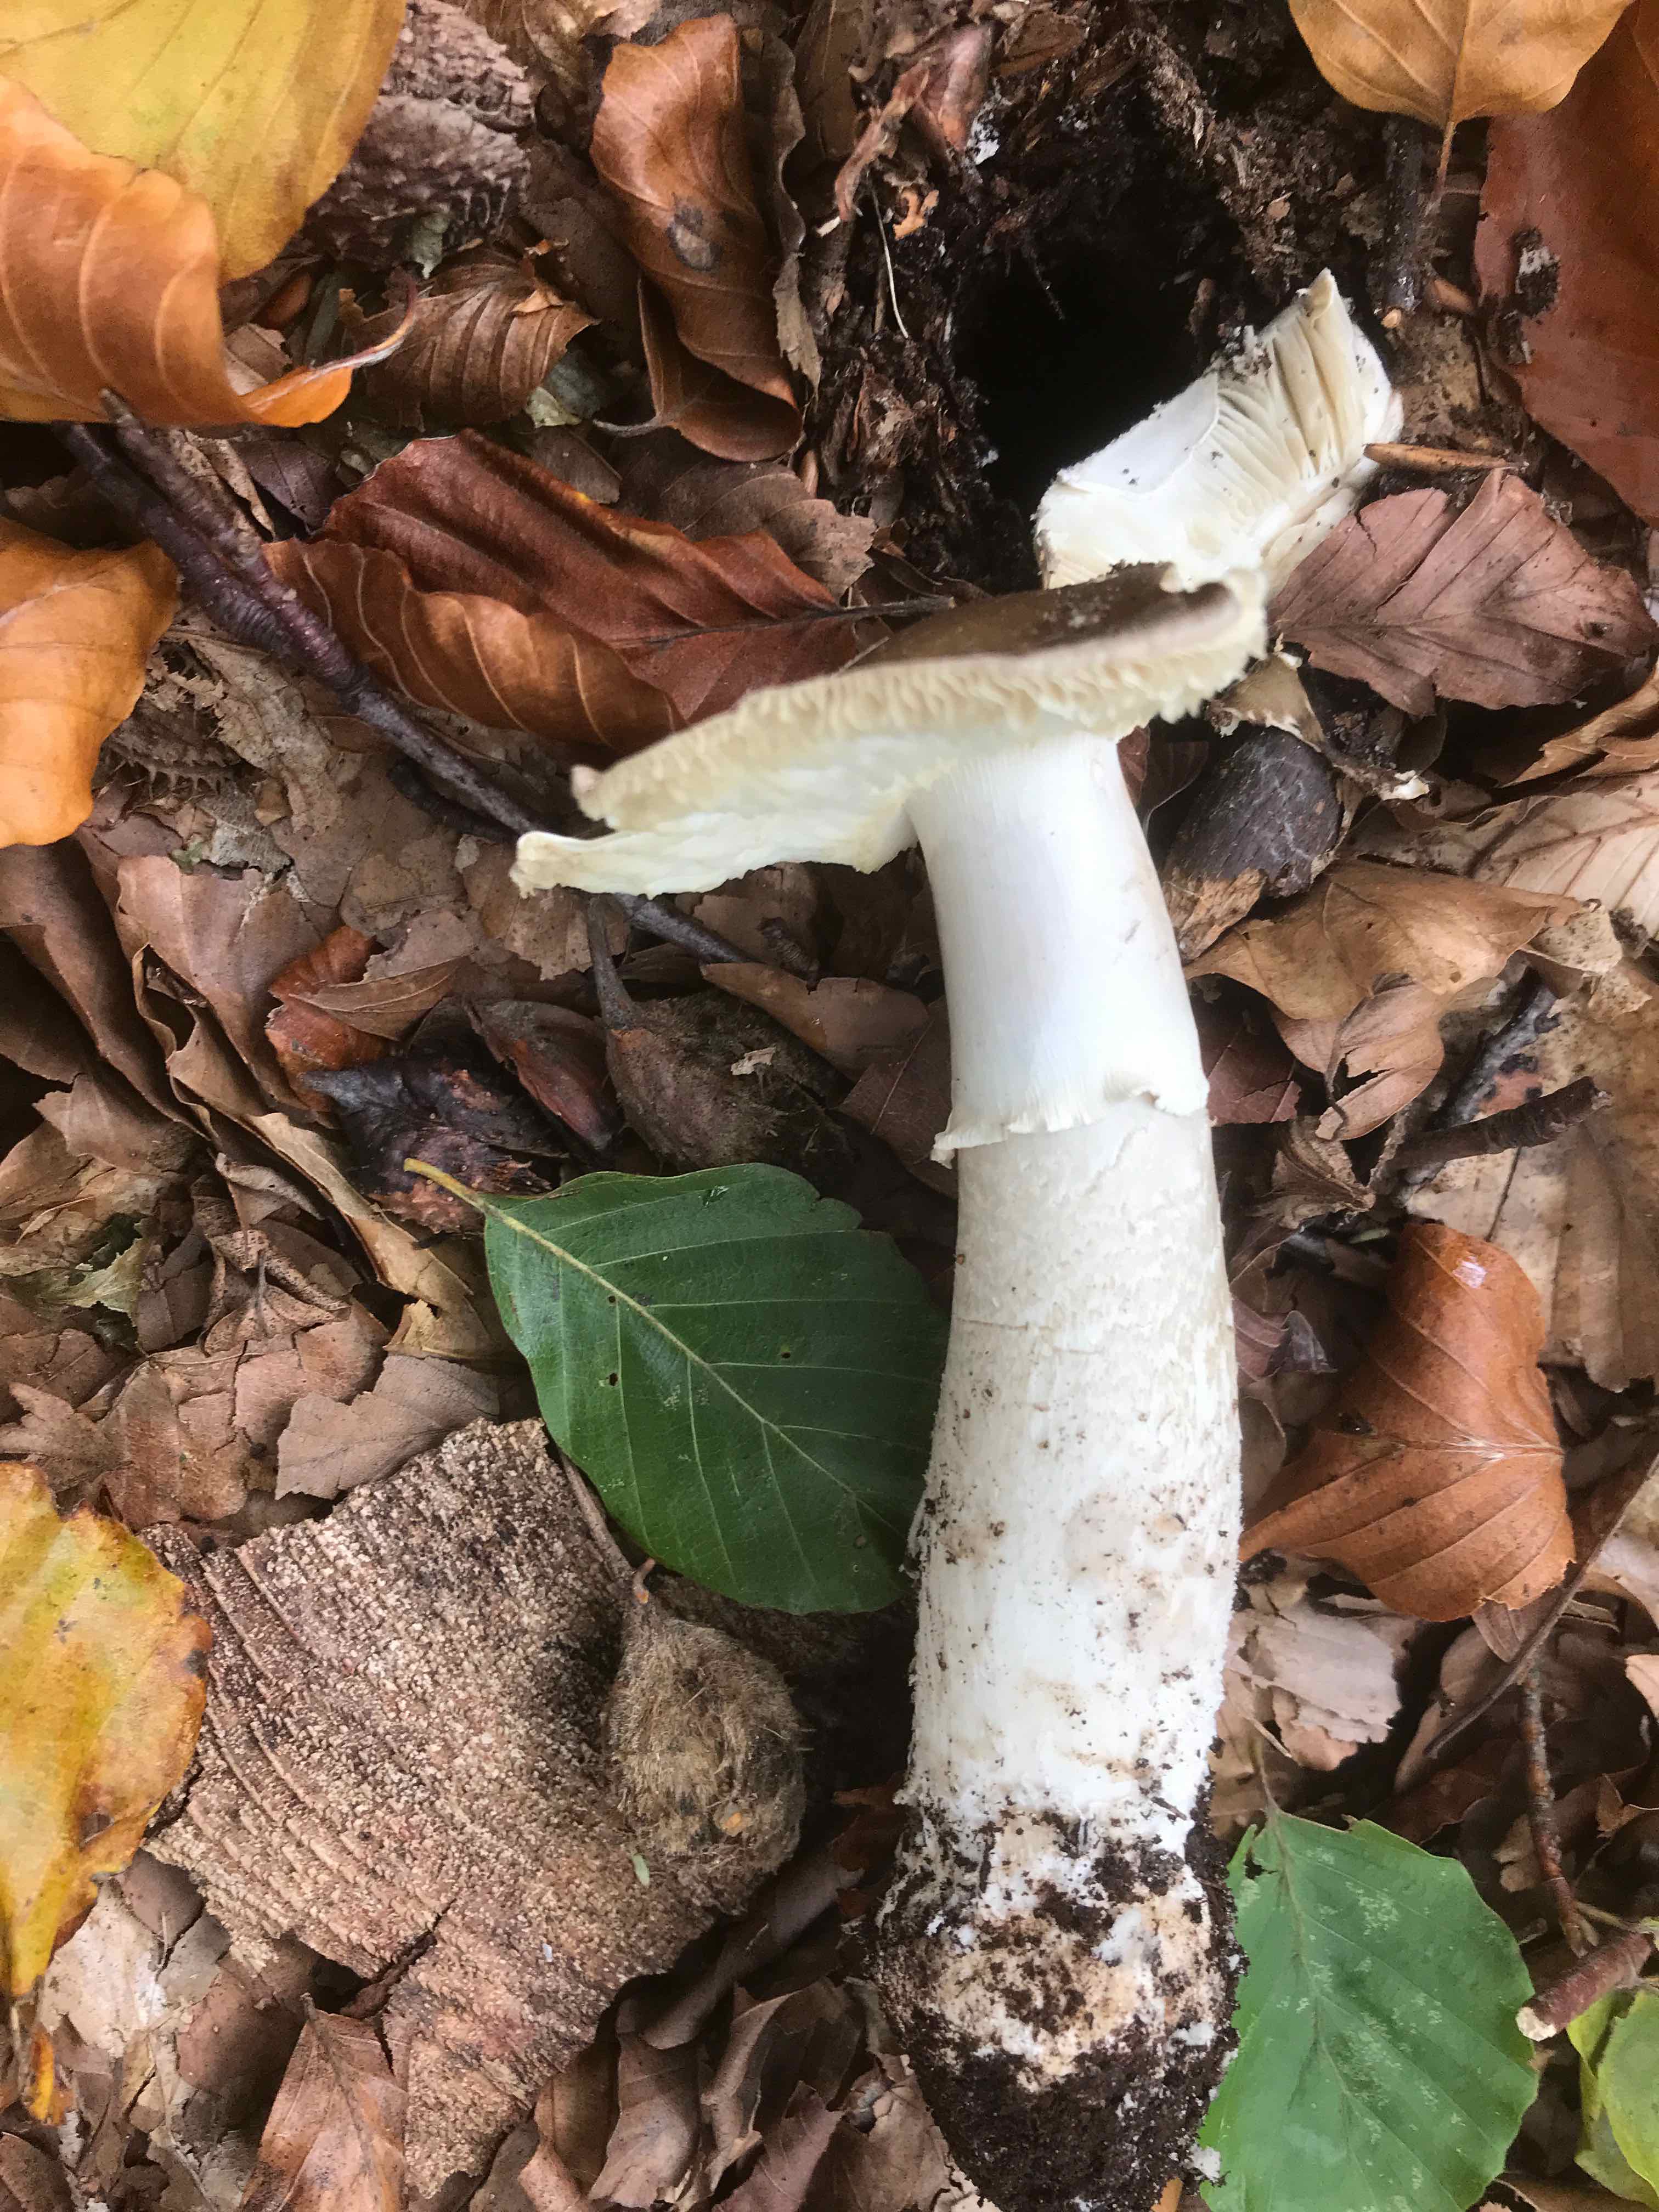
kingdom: Fungi
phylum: Basidiomycota
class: Agaricomycetes
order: Agaricales
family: Amanitaceae
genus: Amanita
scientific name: Amanita
